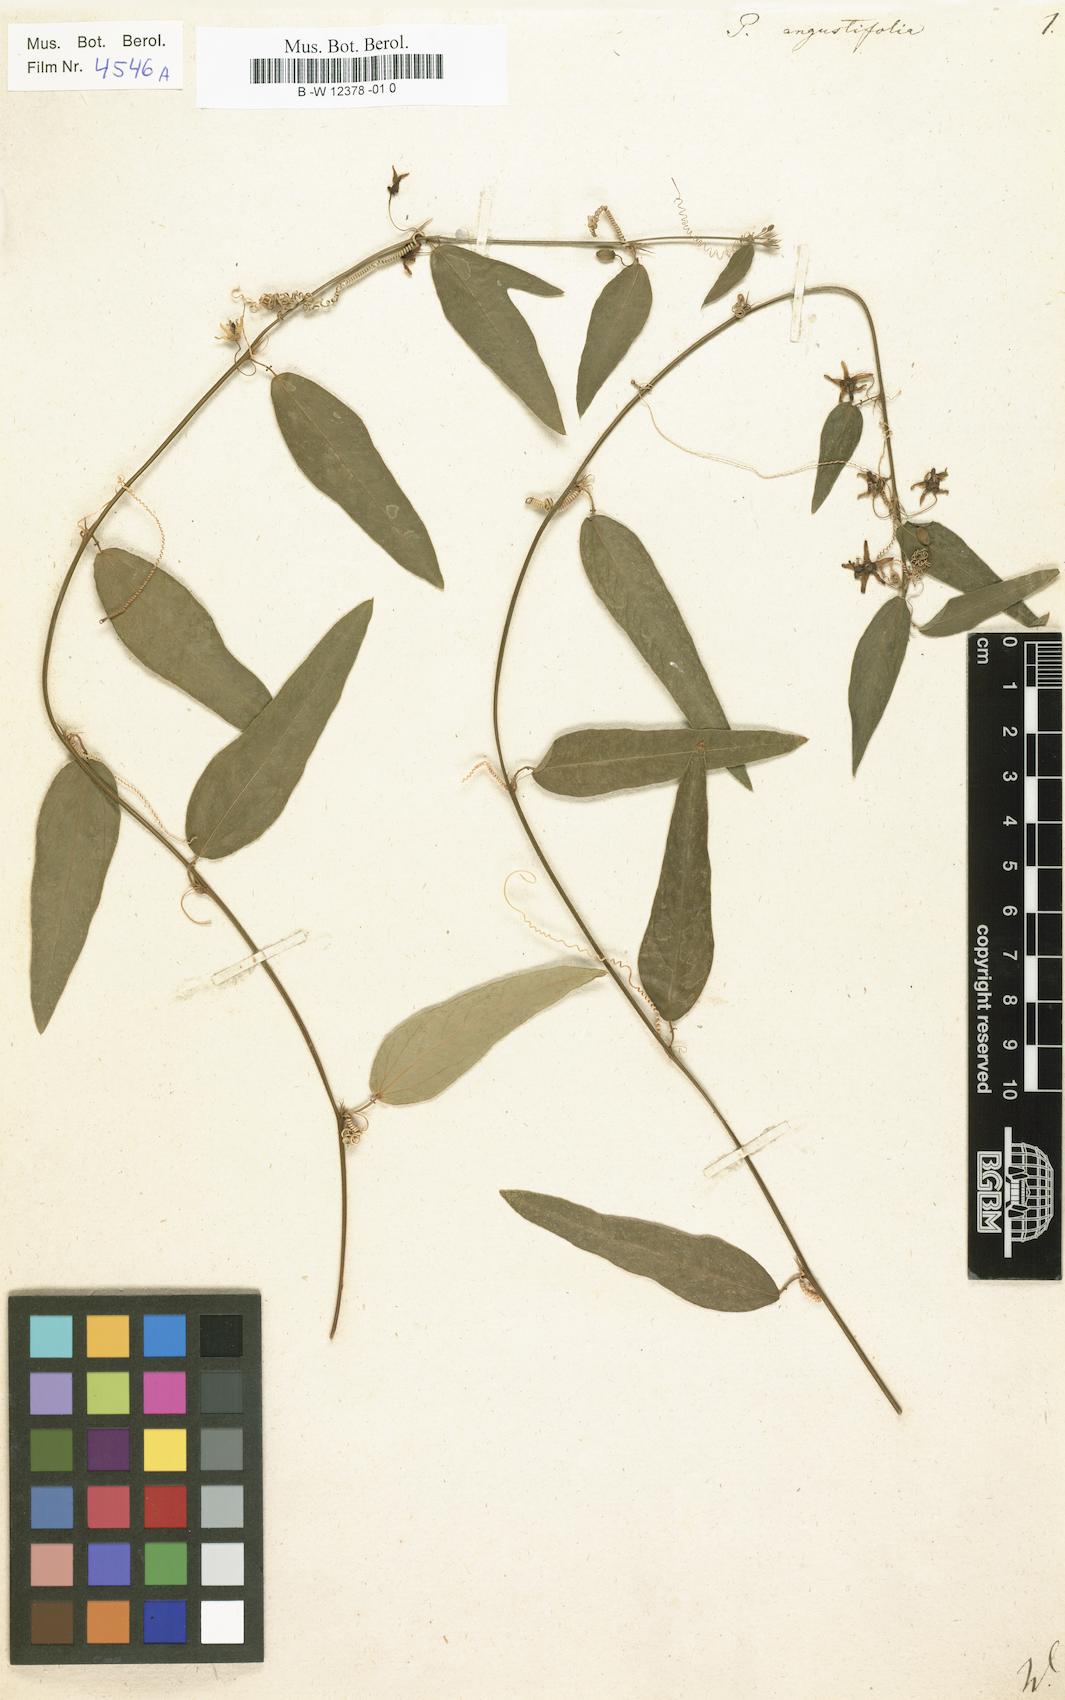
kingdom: Plantae
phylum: Tracheophyta
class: Magnoliopsida
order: Malpighiales
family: Passifloraceae
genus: Passiflora
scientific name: Passiflora suberosa
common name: Wild passionfruit
